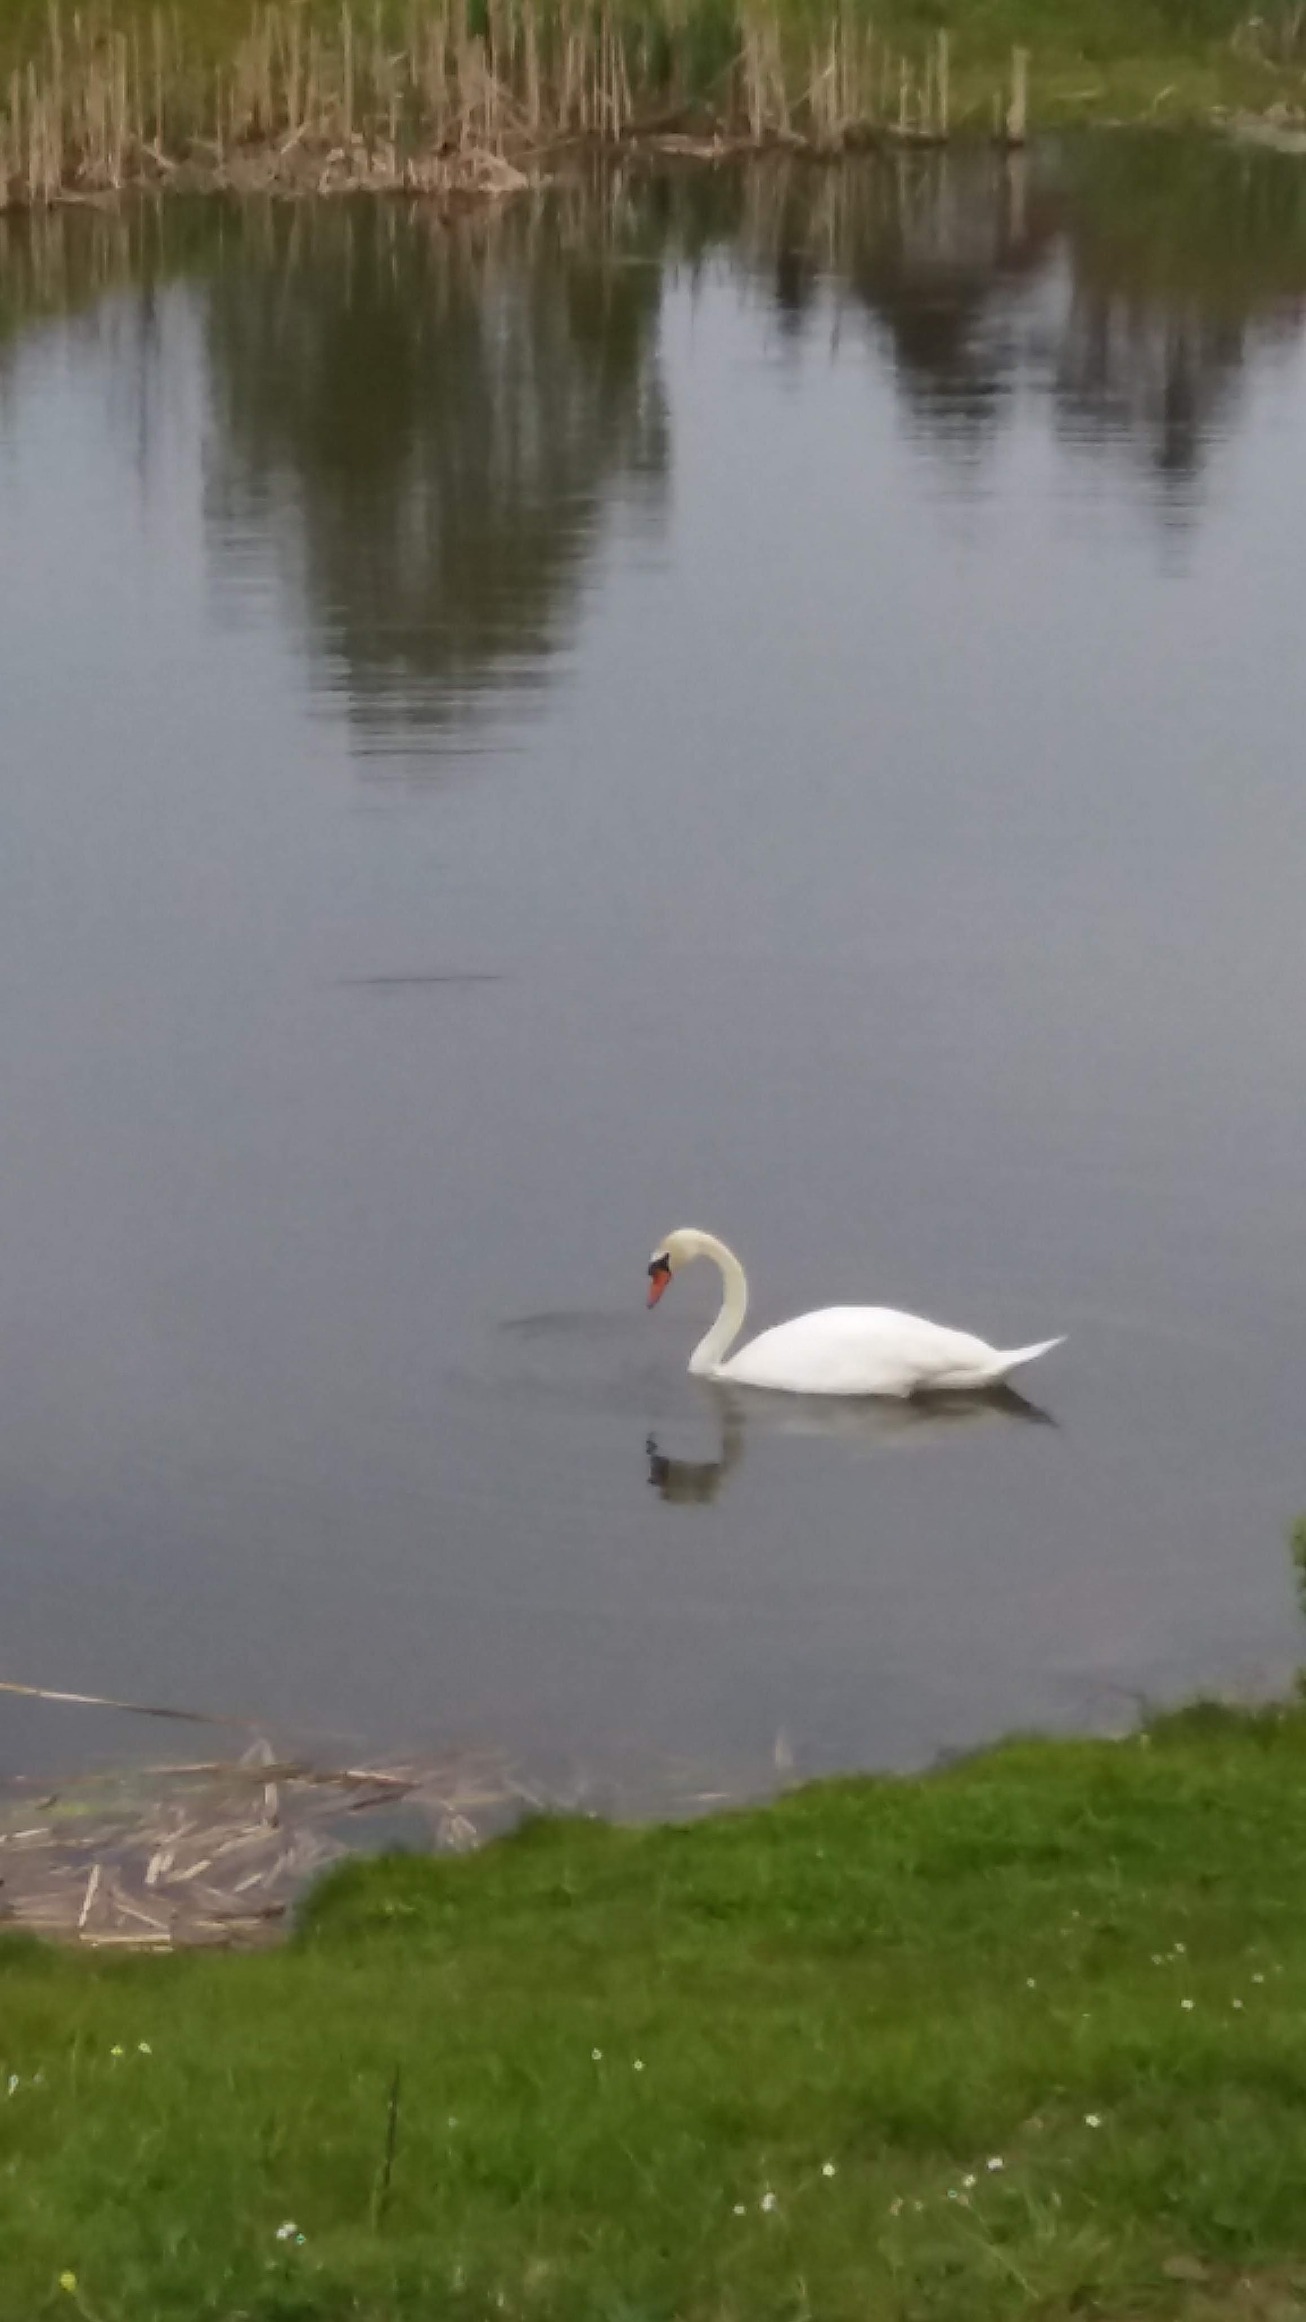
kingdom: Animalia
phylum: Chordata
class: Aves
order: Anseriformes
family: Anatidae
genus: Cygnus
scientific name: Cygnus olor
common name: Knopsvane
